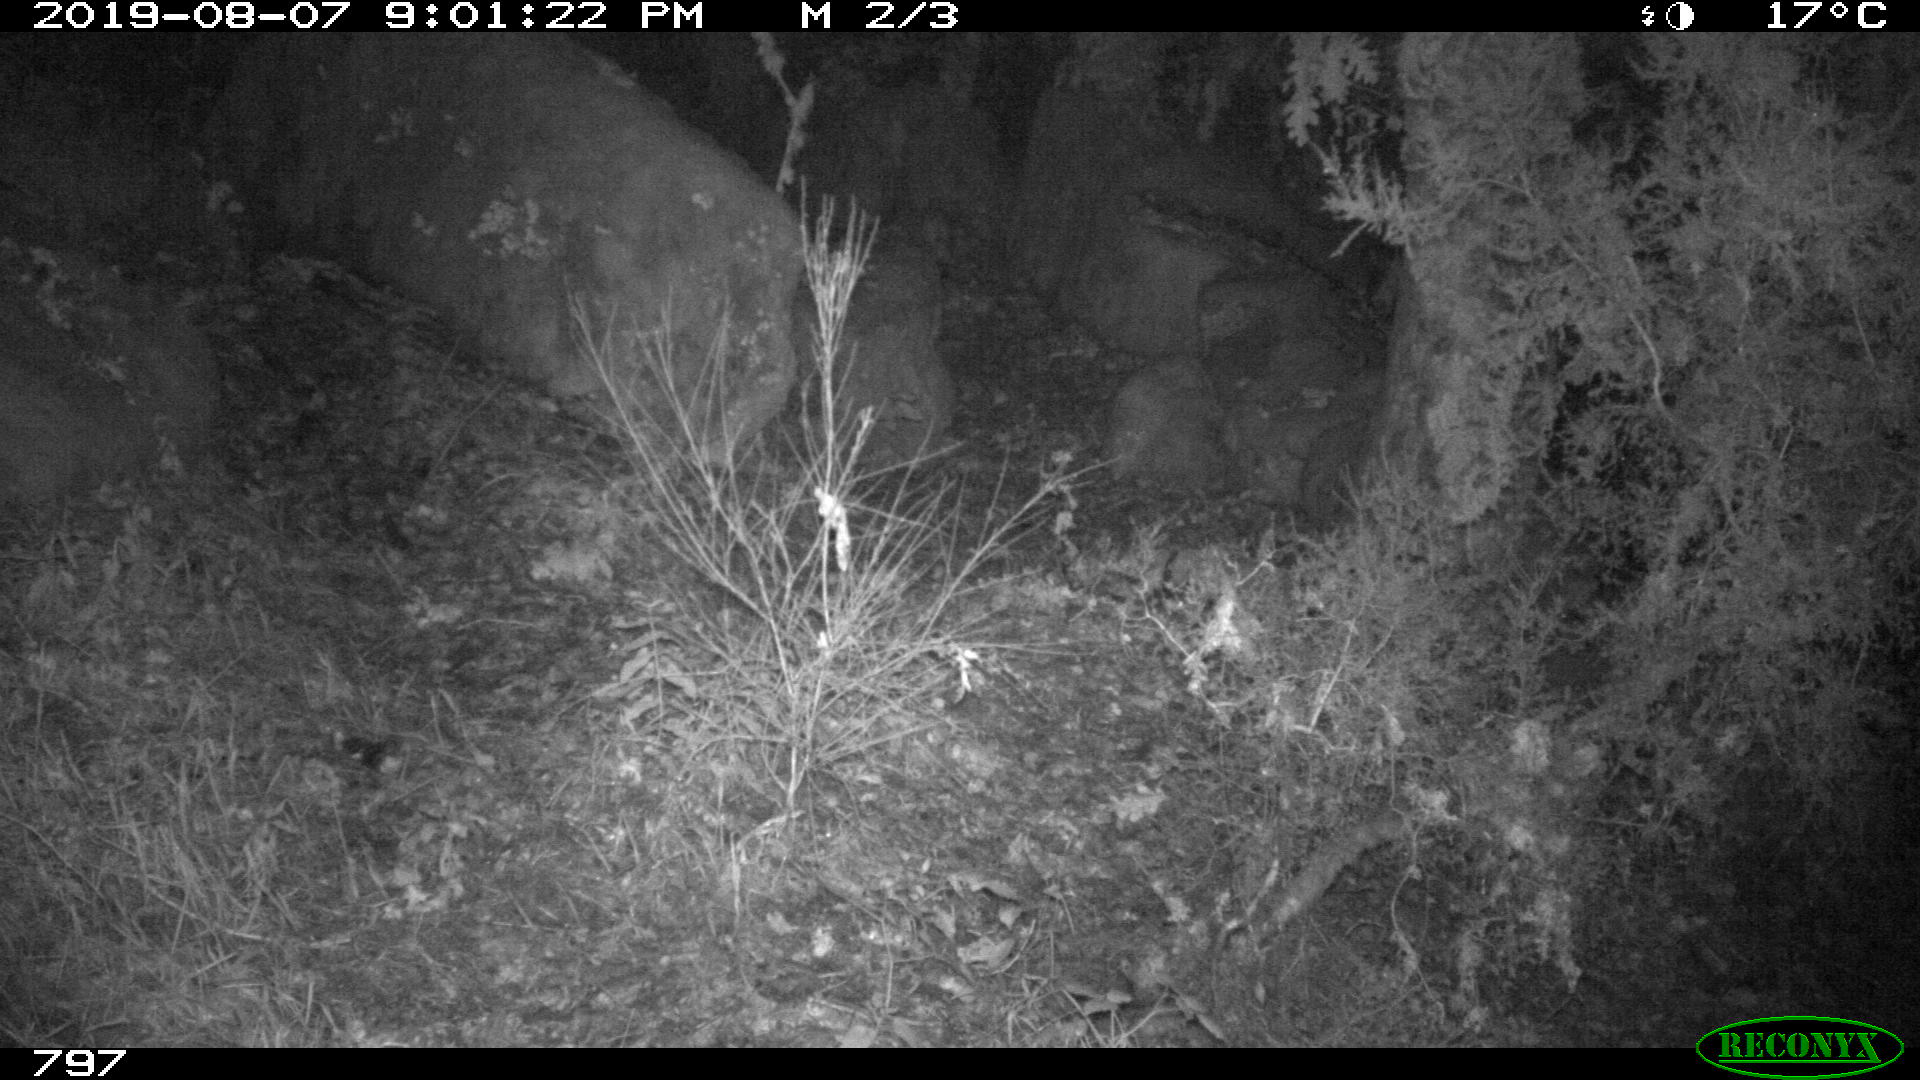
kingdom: Animalia
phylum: Chordata
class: Mammalia
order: Artiodactyla
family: Suidae
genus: Sus
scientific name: Sus scrofa
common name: Wild boar
